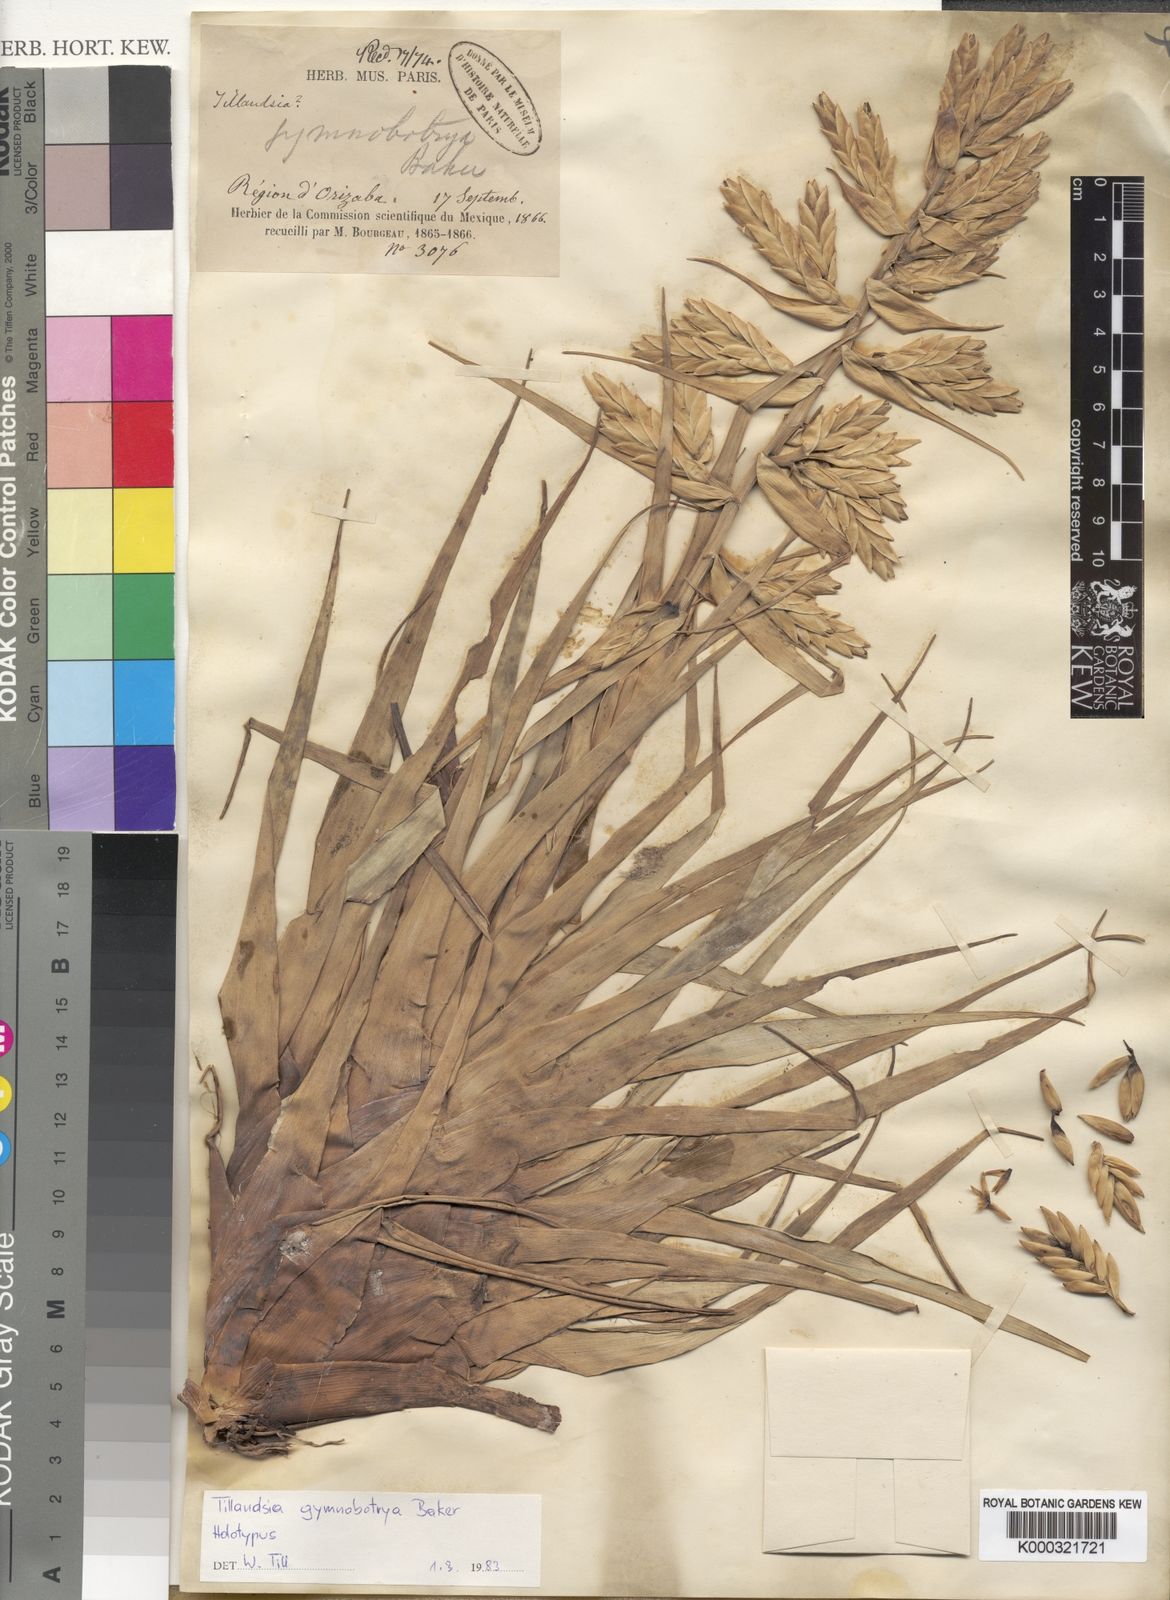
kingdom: Plantae
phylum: Tracheophyta
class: Liliopsida
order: Poales
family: Bromeliaceae
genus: Tillandsia
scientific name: Tillandsia gymnobotrya
